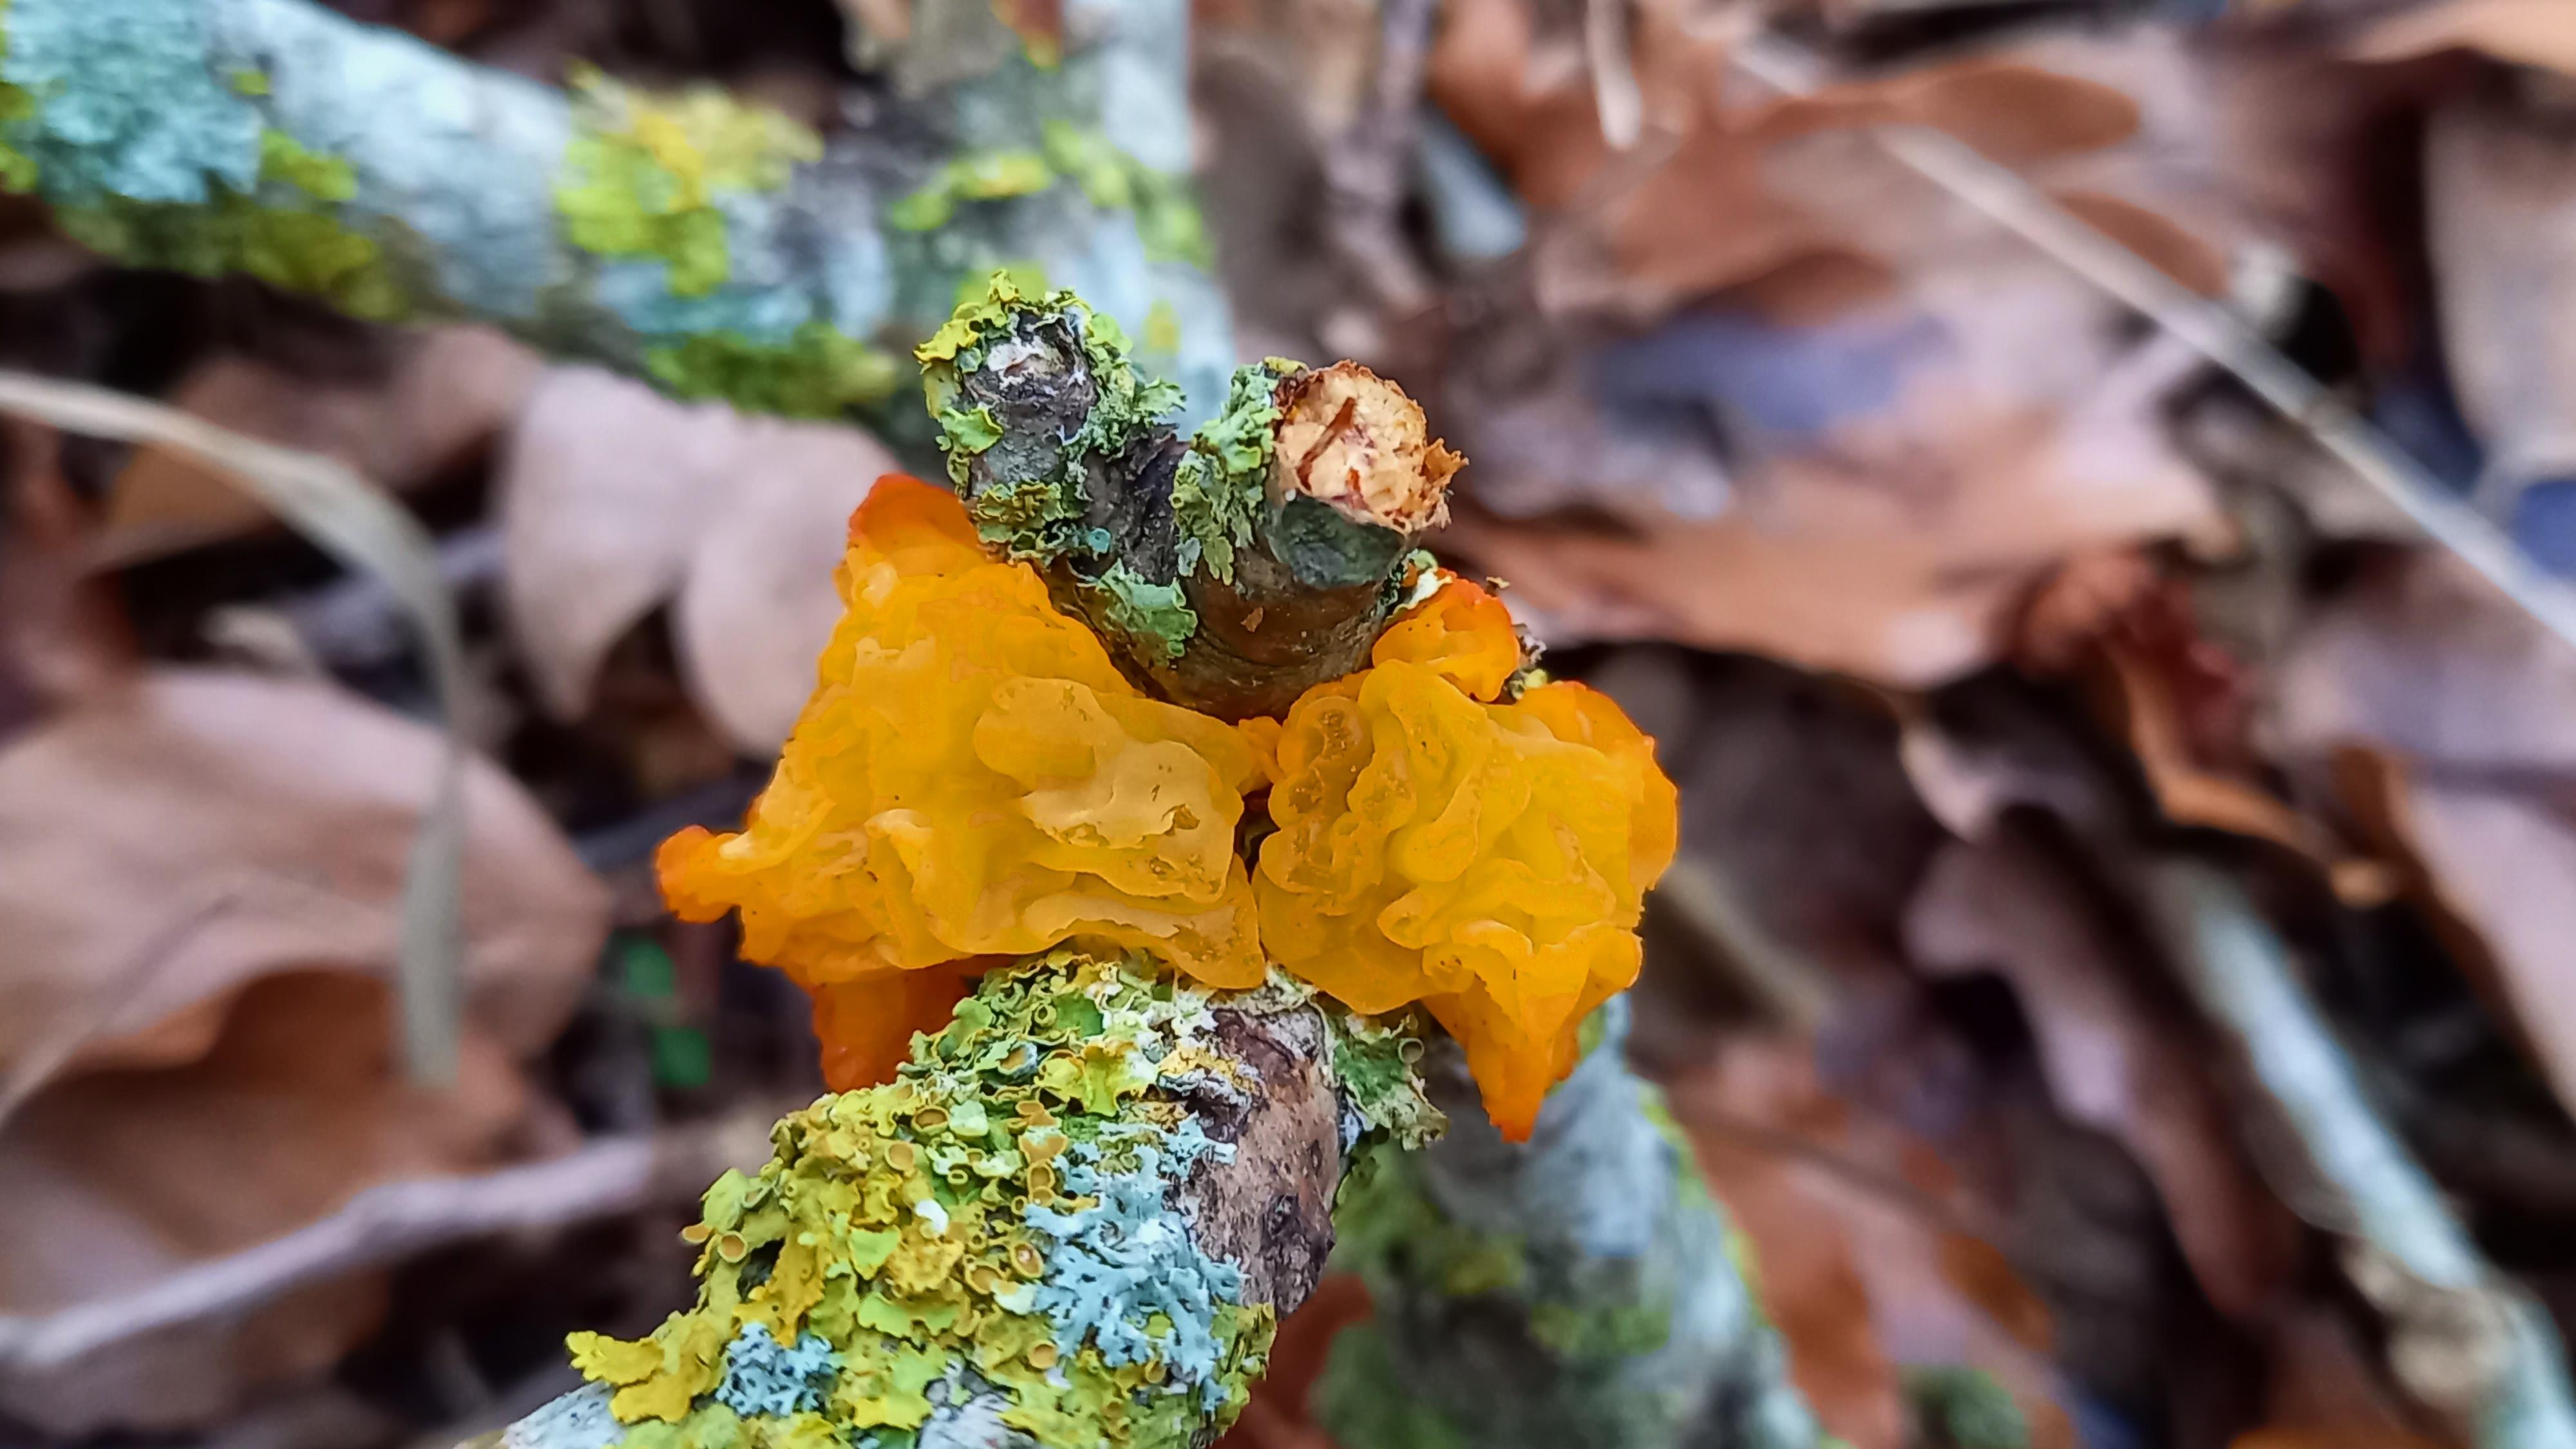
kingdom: Fungi
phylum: Basidiomycota
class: Tremellomycetes
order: Tremellales
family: Tremellaceae
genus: Tremella
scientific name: Tremella mesenterica
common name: gul bævresvamp
